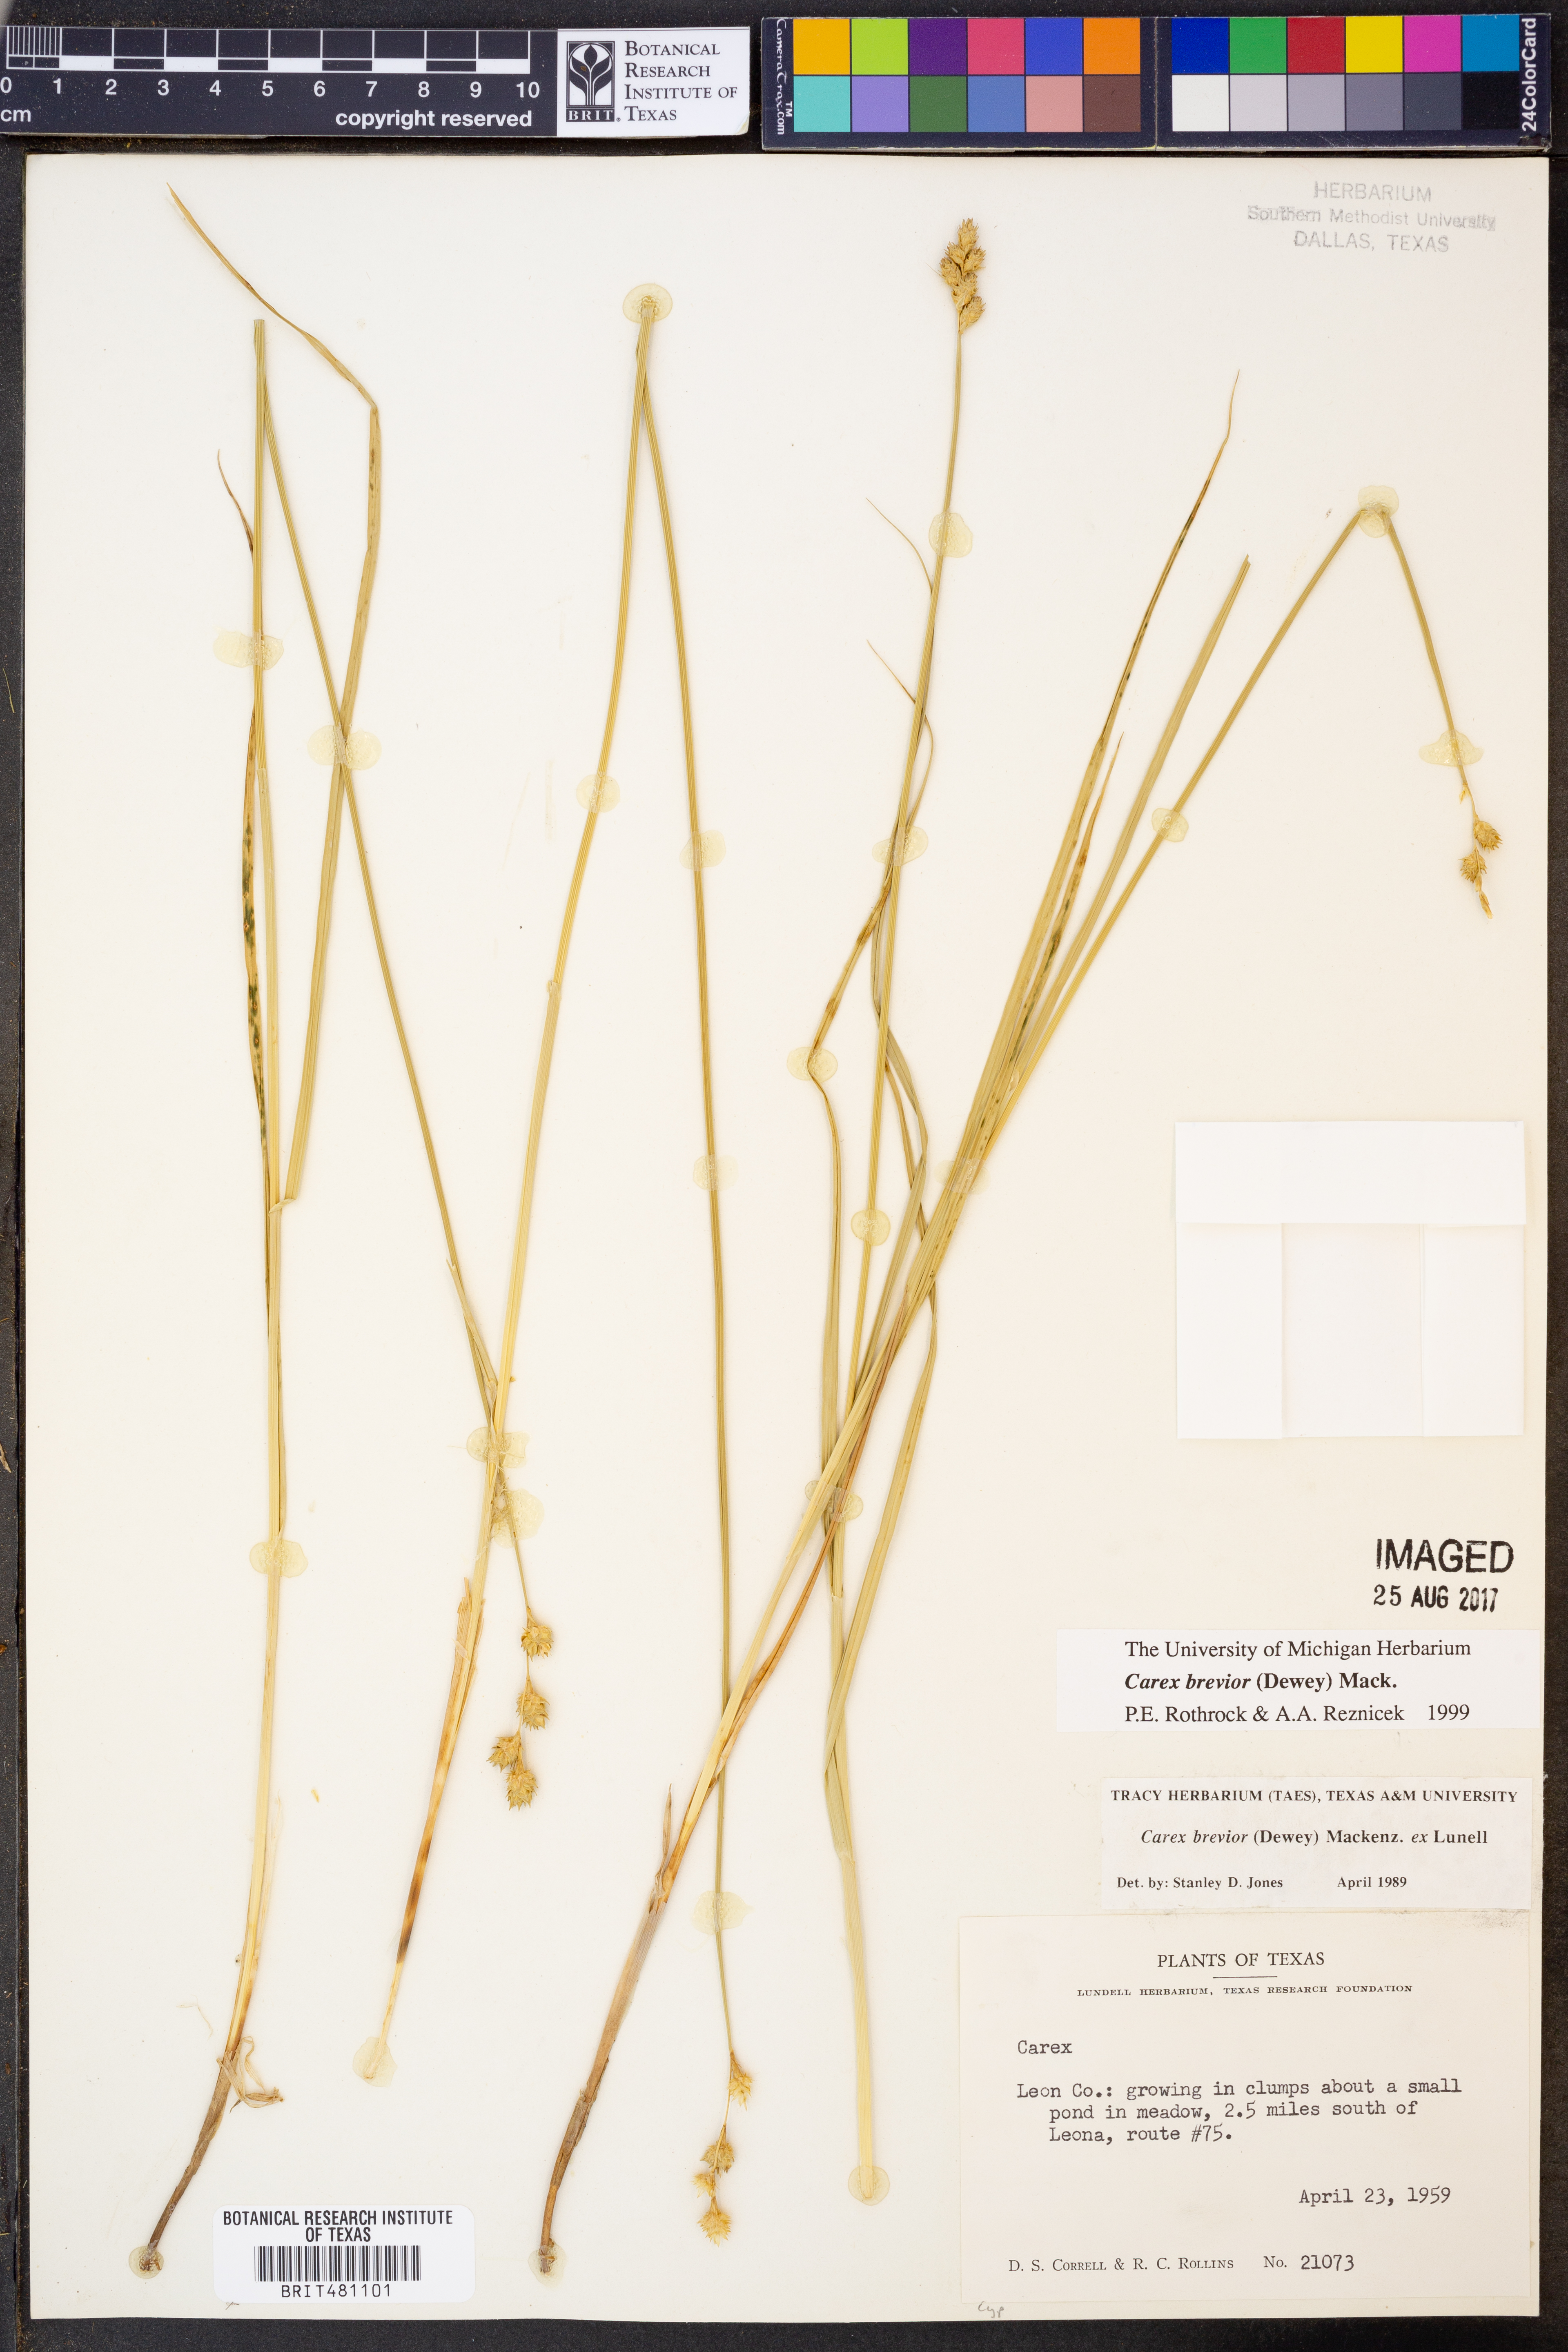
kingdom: Plantae
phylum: Tracheophyta
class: Liliopsida
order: Poales
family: Cyperaceae
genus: Carex
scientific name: Carex brevior
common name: Brevior sedge
